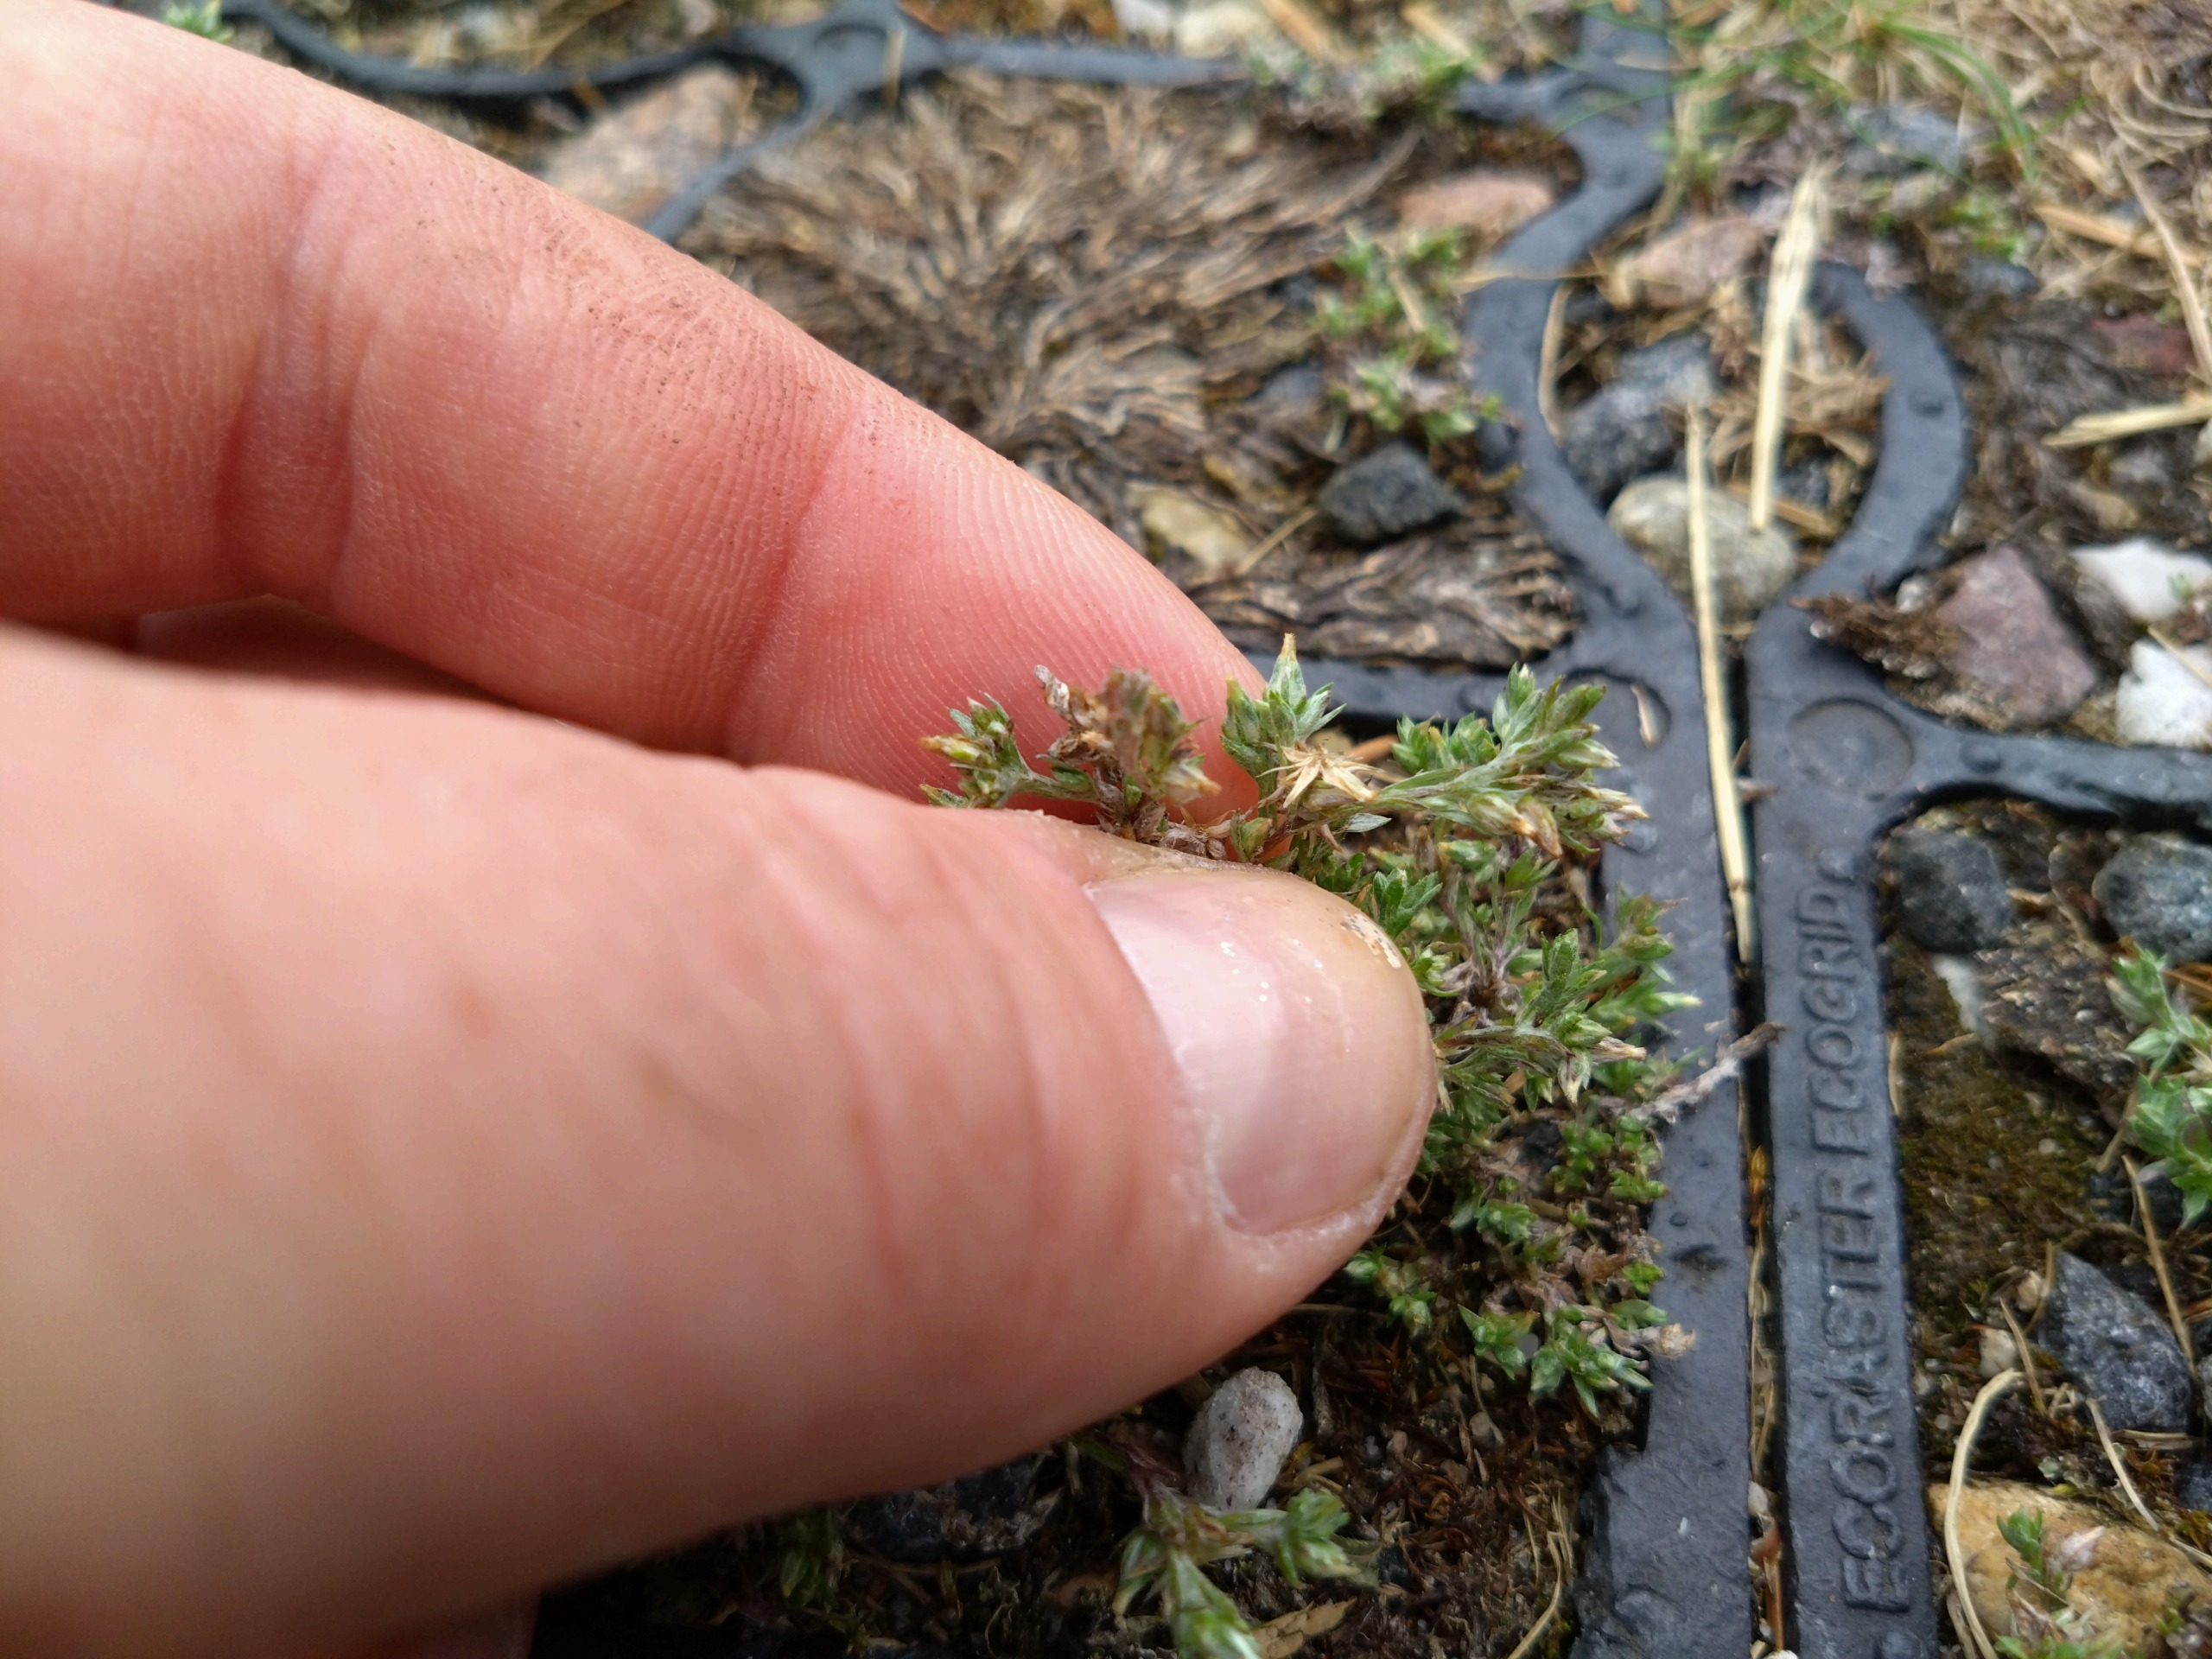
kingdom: Plantae
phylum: Tracheophyta
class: Magnoliopsida
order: Asterales
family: Asteraceae
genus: Logfia
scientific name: Logfia minima
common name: Liden museurt
